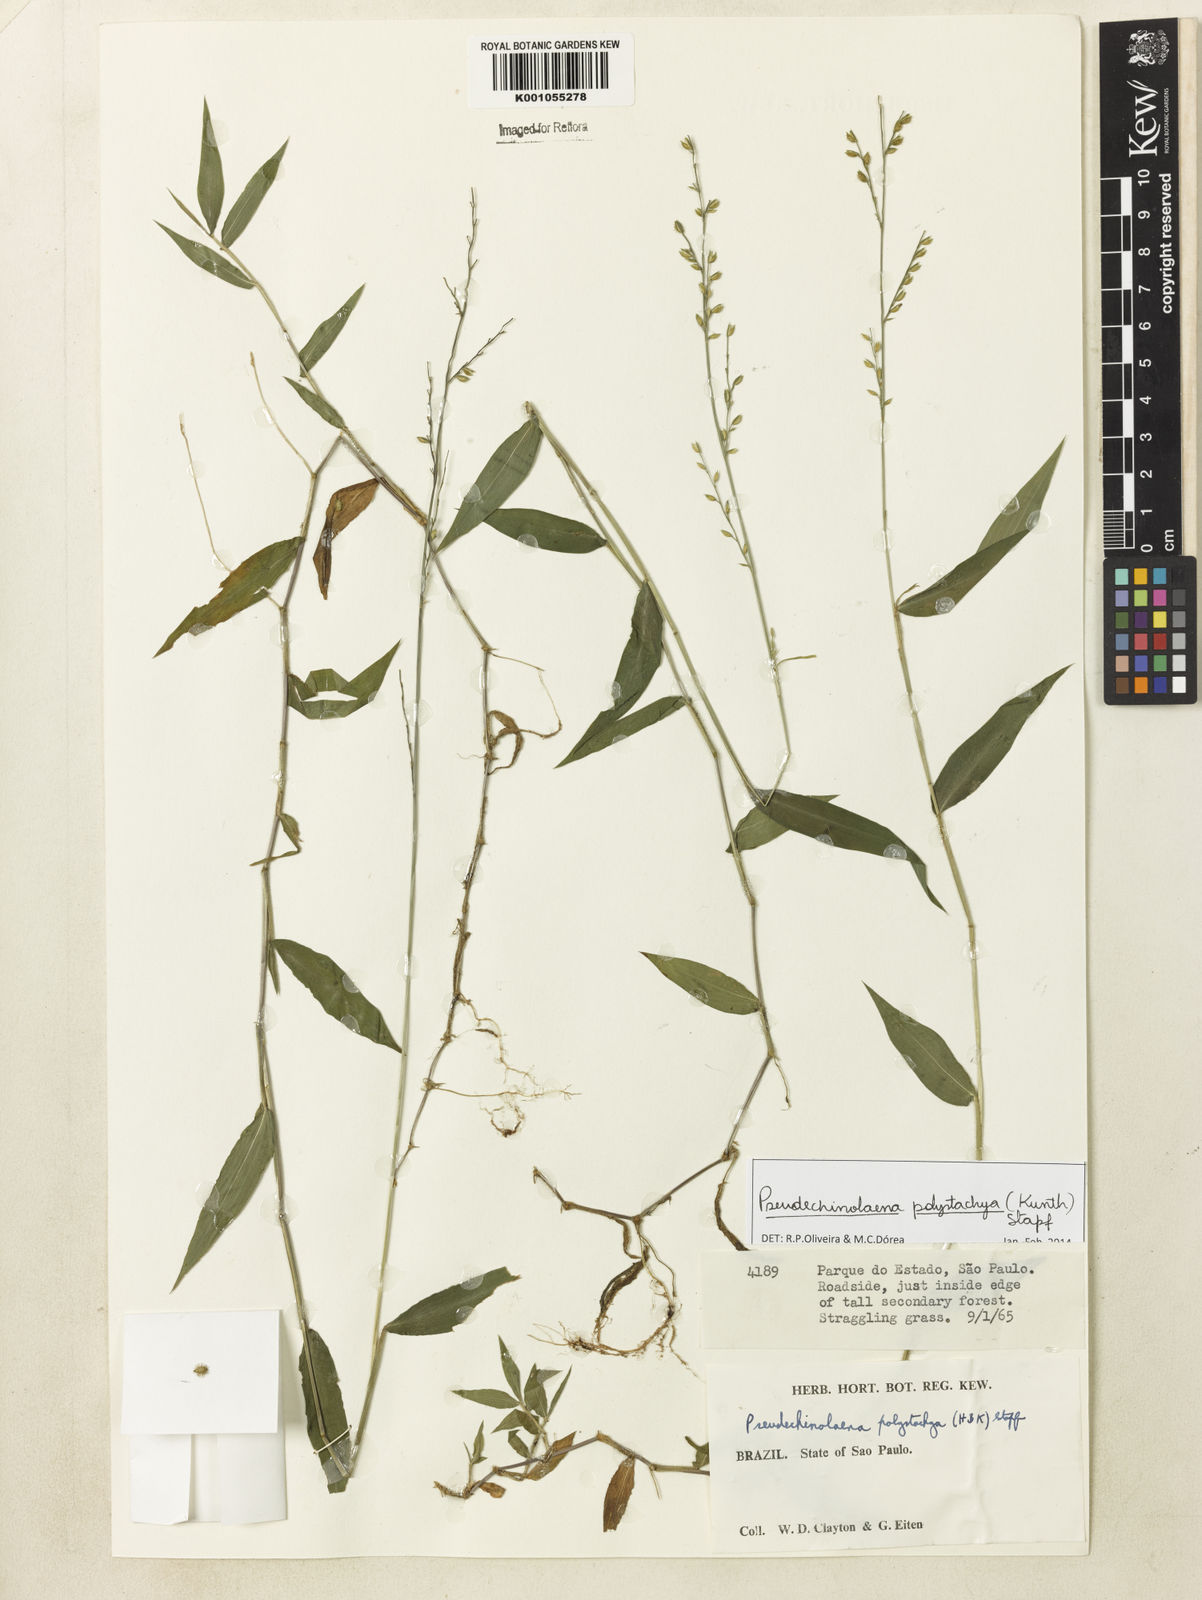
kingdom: Plantae
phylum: Tracheophyta
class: Liliopsida
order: Poales
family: Poaceae
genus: Pseudechinolaena
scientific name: Pseudechinolaena polystachya
